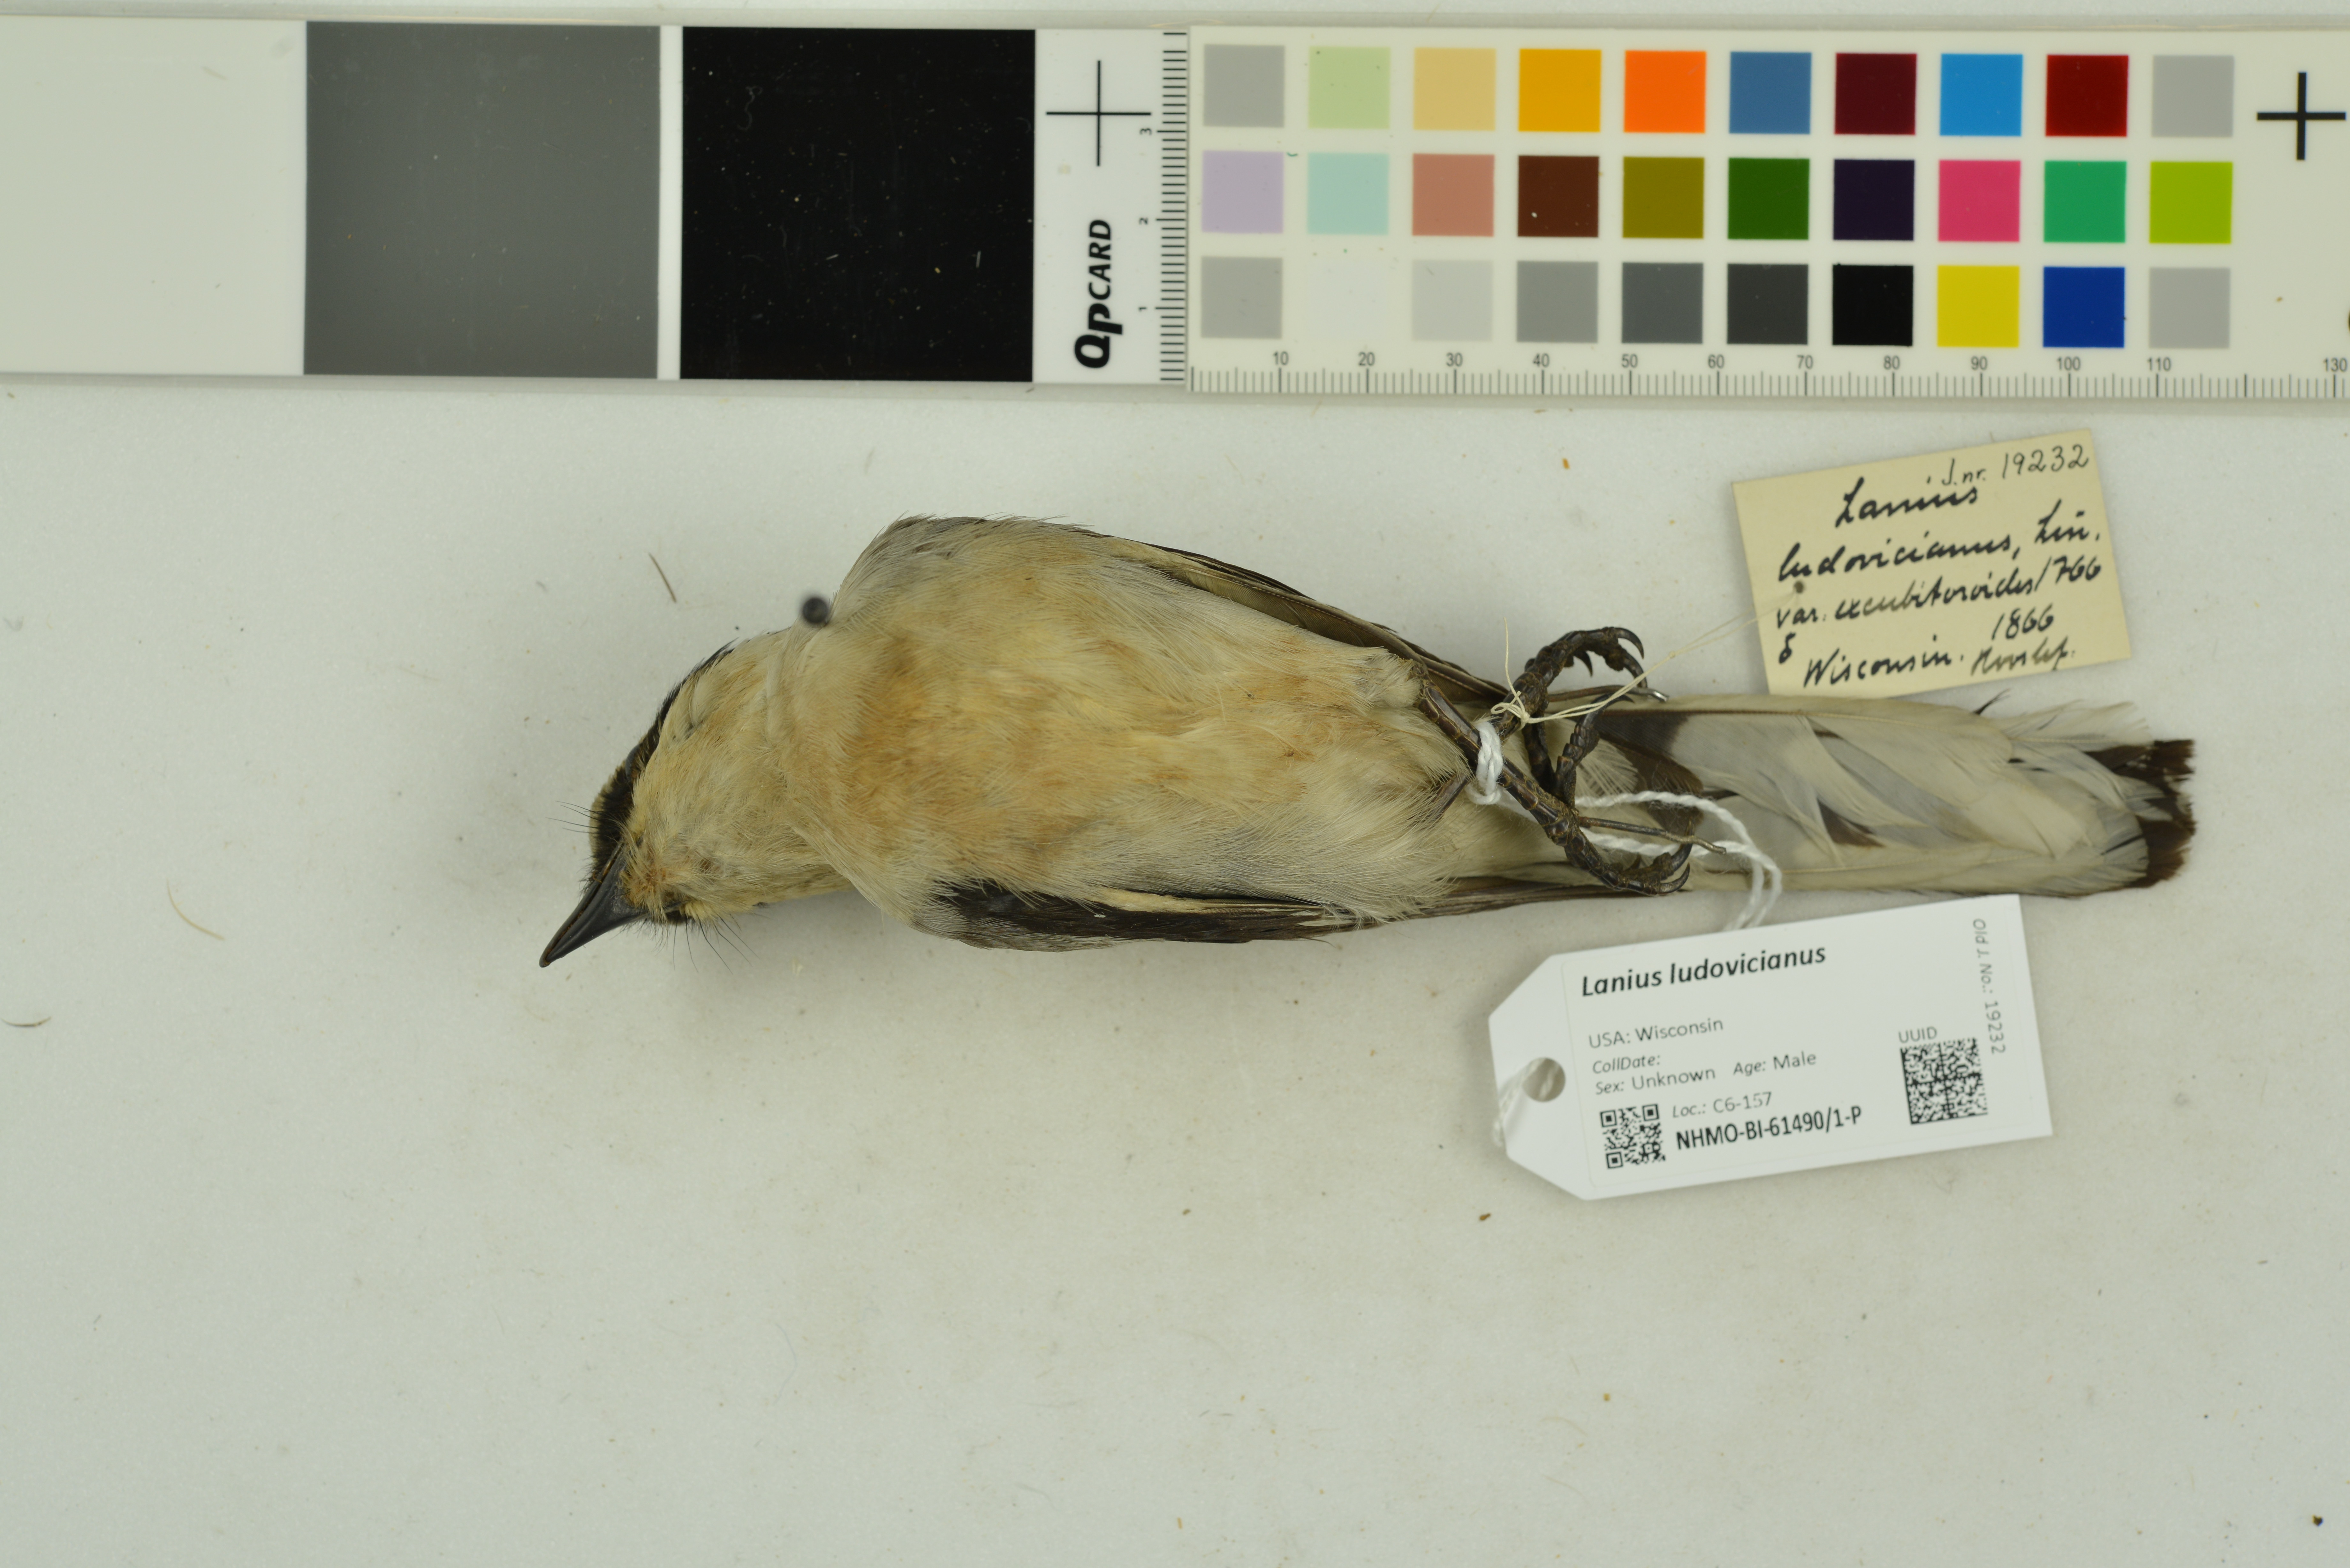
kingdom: Animalia
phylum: Chordata
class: Aves
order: Passeriformes
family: Laniidae
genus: Lanius
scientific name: Lanius ludovicianus
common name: Loggerhead shrike
